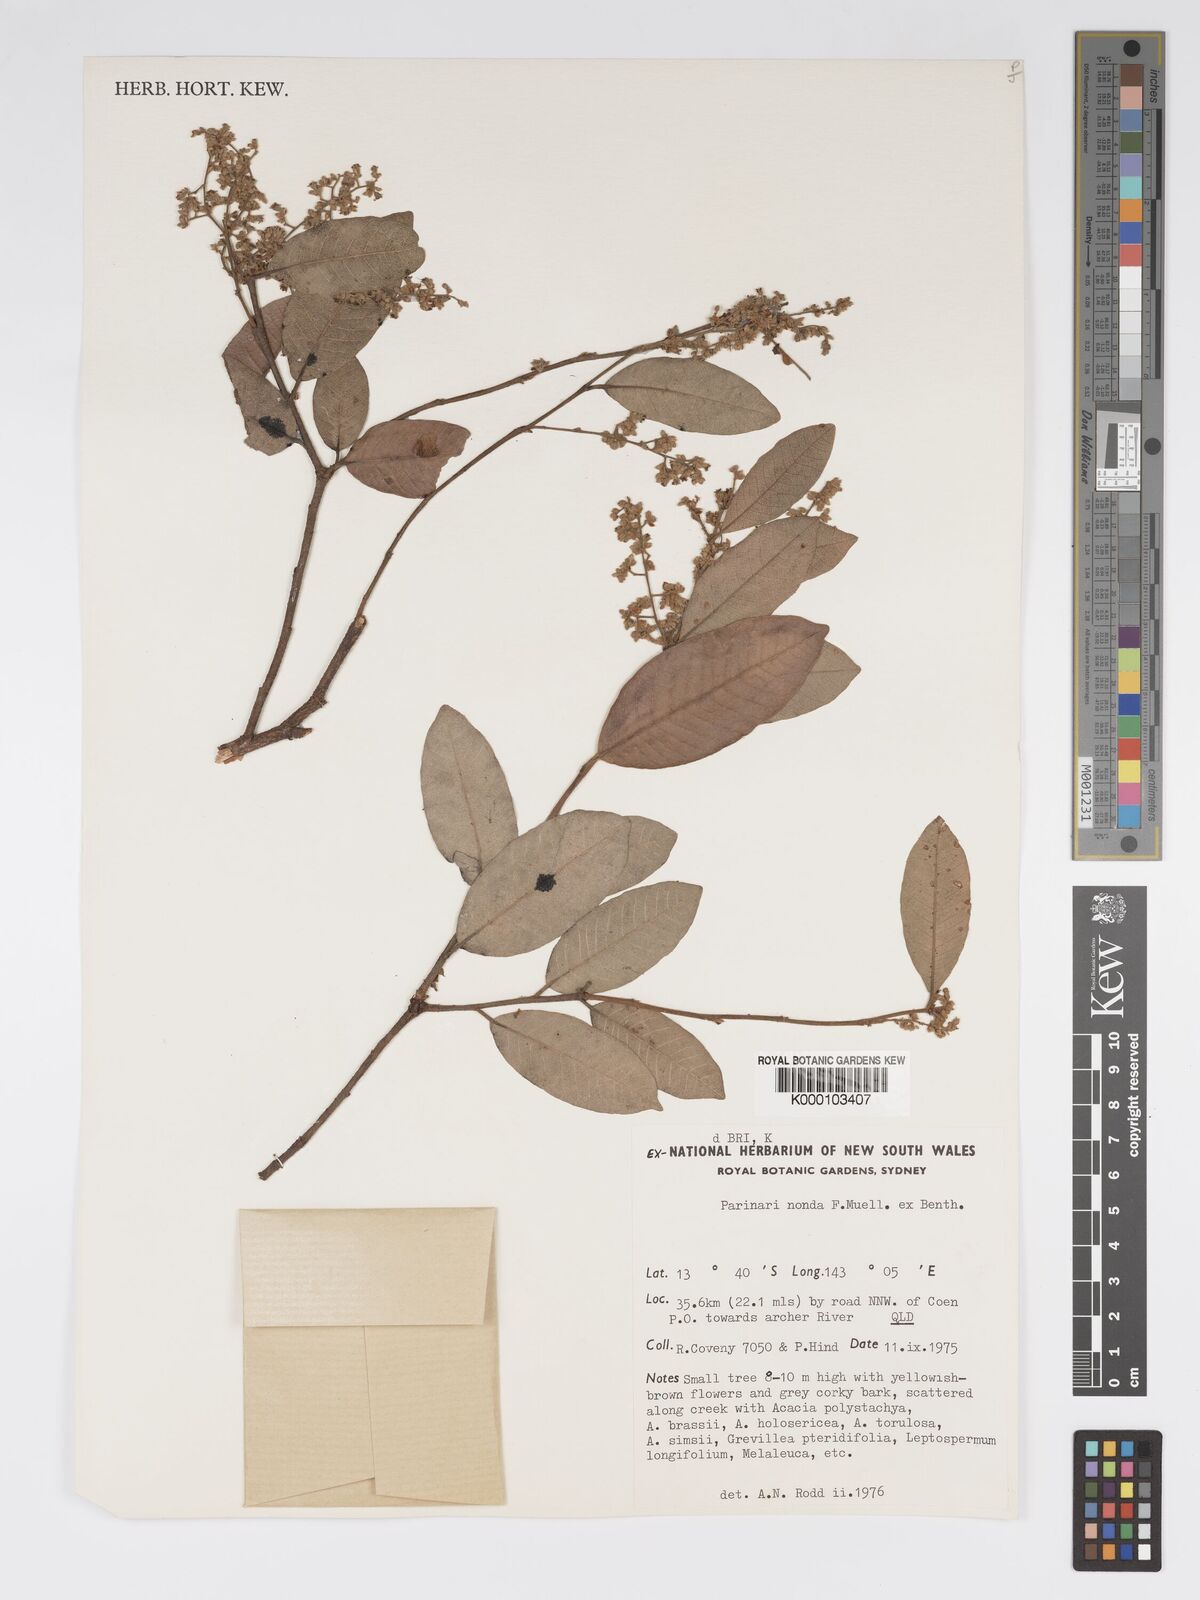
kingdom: Plantae
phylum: Tracheophyta
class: Magnoliopsida
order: Malpighiales
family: Chrysobalanaceae
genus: Parinari
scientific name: Parinari nonda
